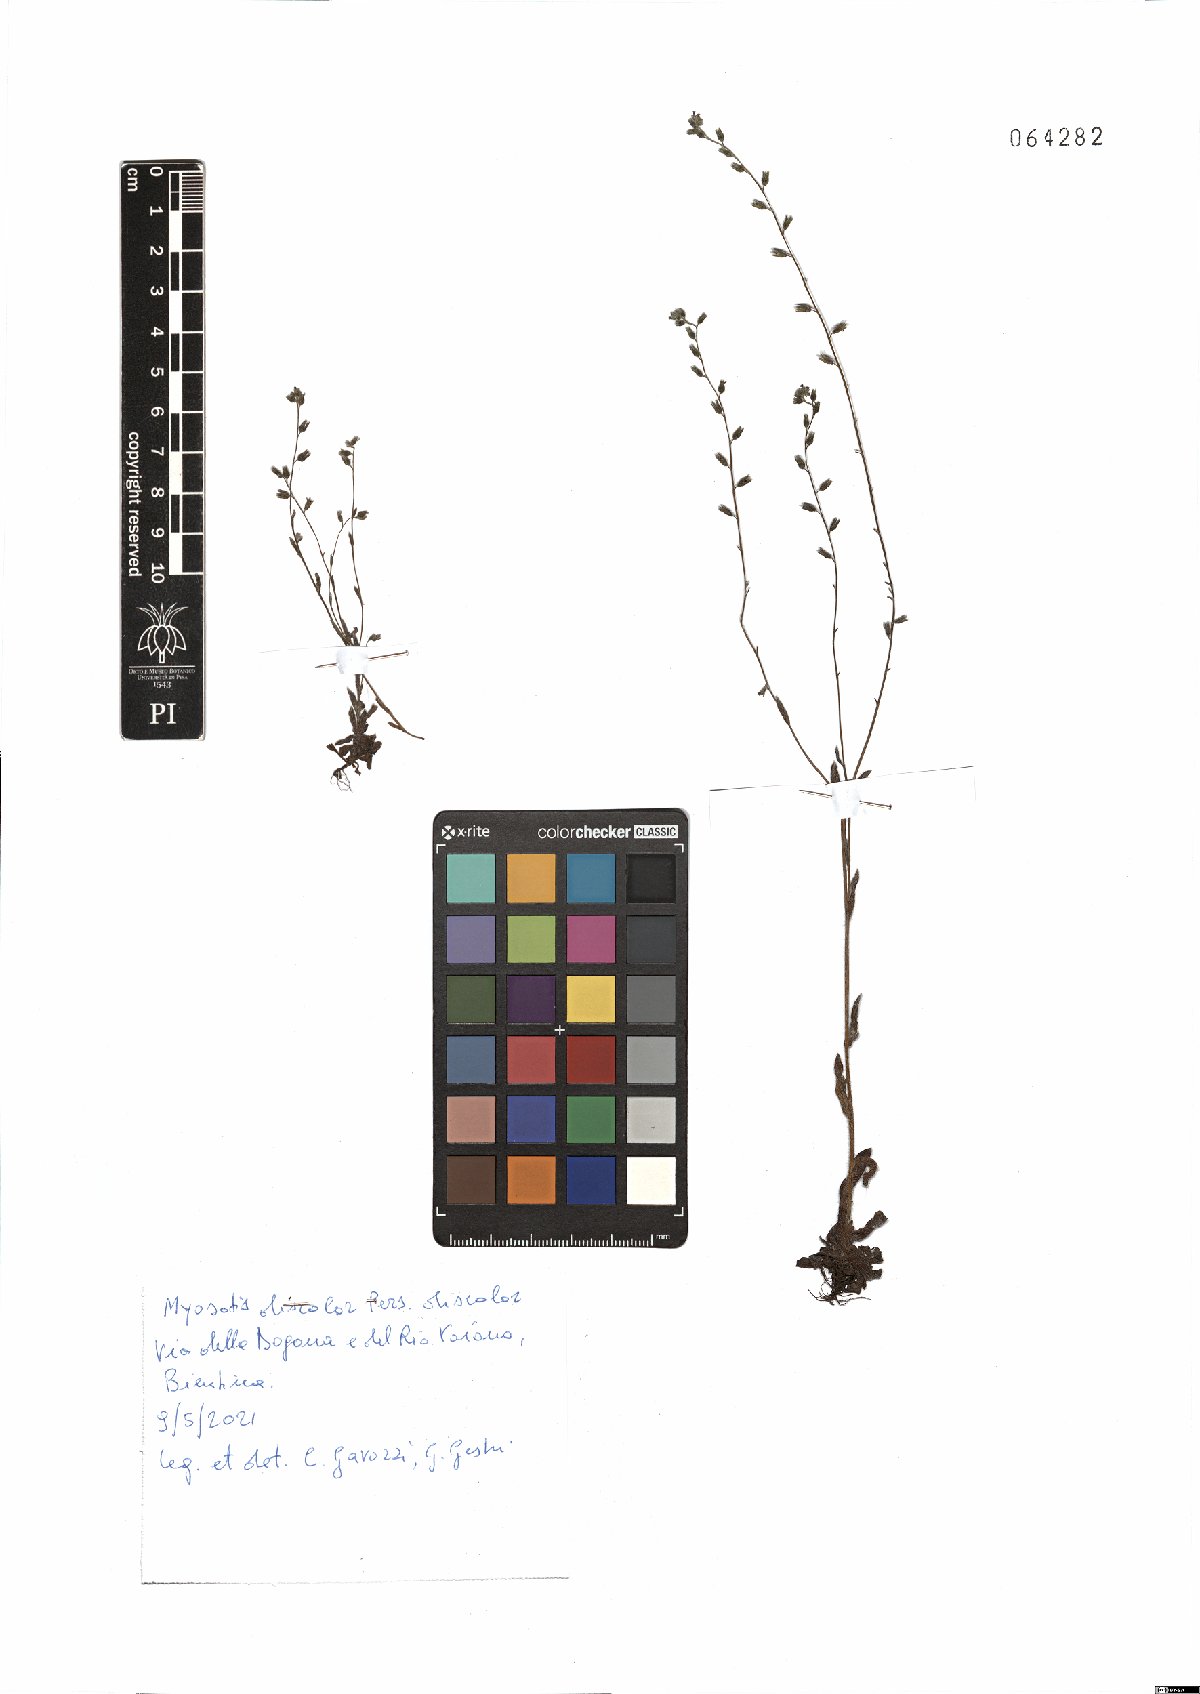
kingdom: Plantae
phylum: Tracheophyta
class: Magnoliopsida
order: Boraginales
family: Boraginaceae
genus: Myosotis
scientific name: Myosotis discolor
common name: Changing forget-me-not
